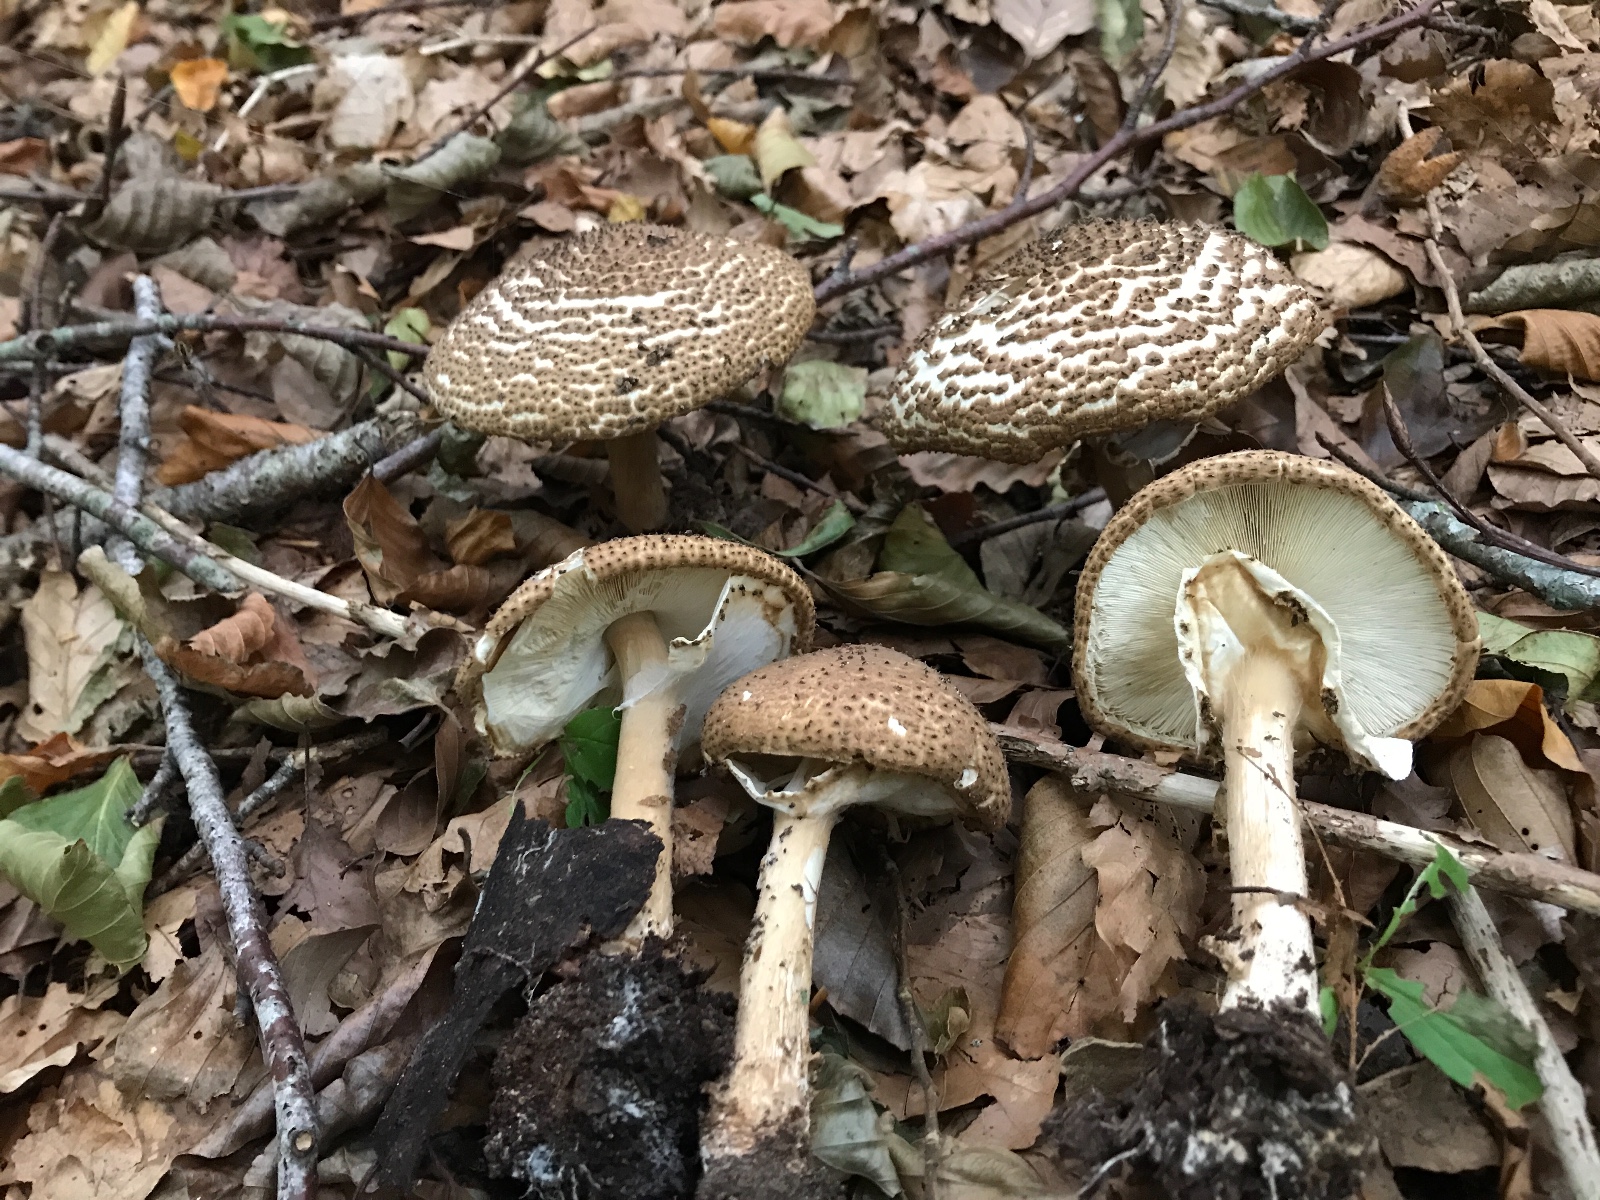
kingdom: Fungi
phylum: Basidiomycota
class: Agaricomycetes
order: Agaricales
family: Agaricaceae
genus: Echinoderma
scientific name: Echinoderma asperum
